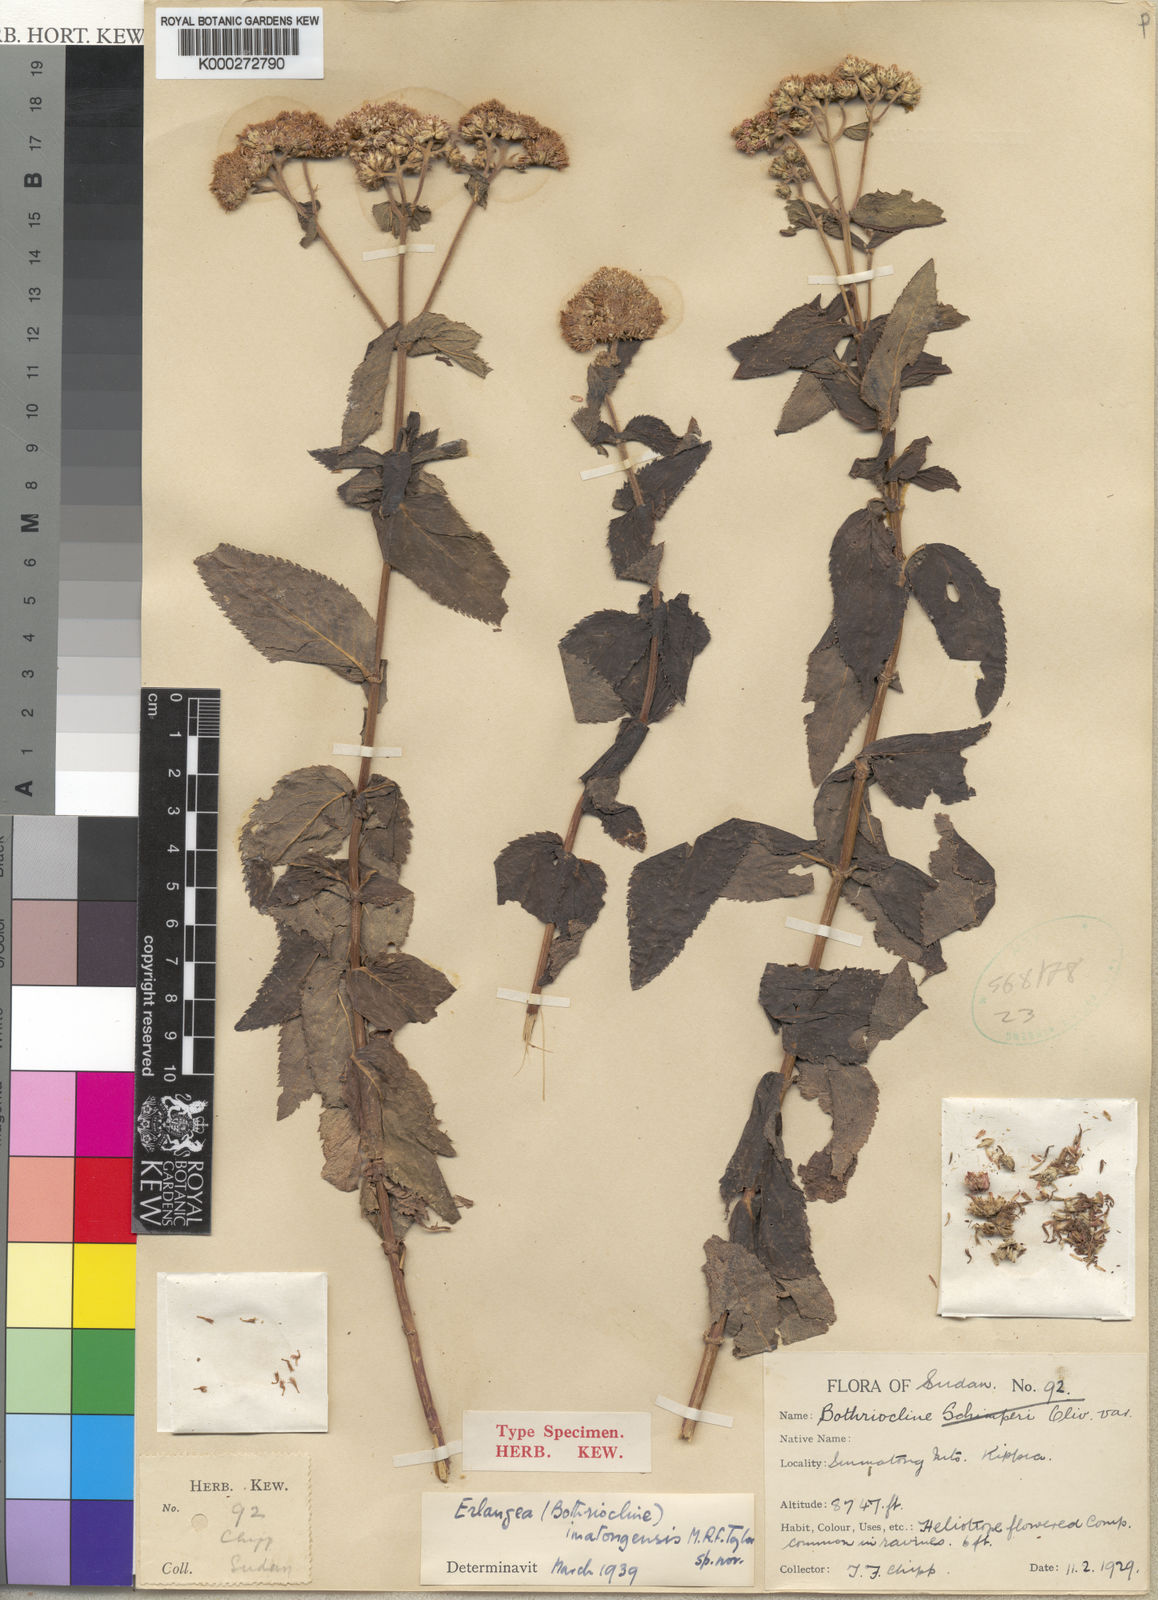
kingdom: Plantae
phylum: Tracheophyta
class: Magnoliopsida
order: Asterales
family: Asteraceae
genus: Bothriocline
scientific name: Bothriocline
